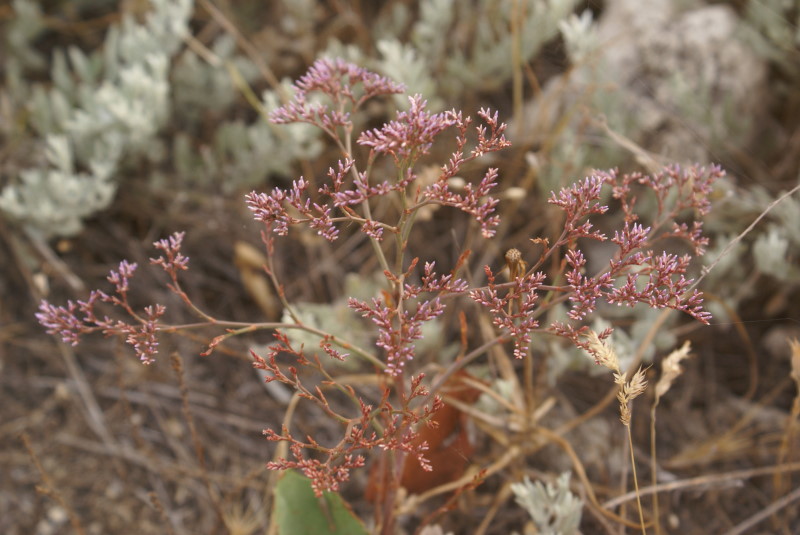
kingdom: Plantae
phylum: Tracheophyta
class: Magnoliopsida
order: Caryophyllales
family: Plumbaginaceae
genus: Goniolimon
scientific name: Goniolimon tauricum
